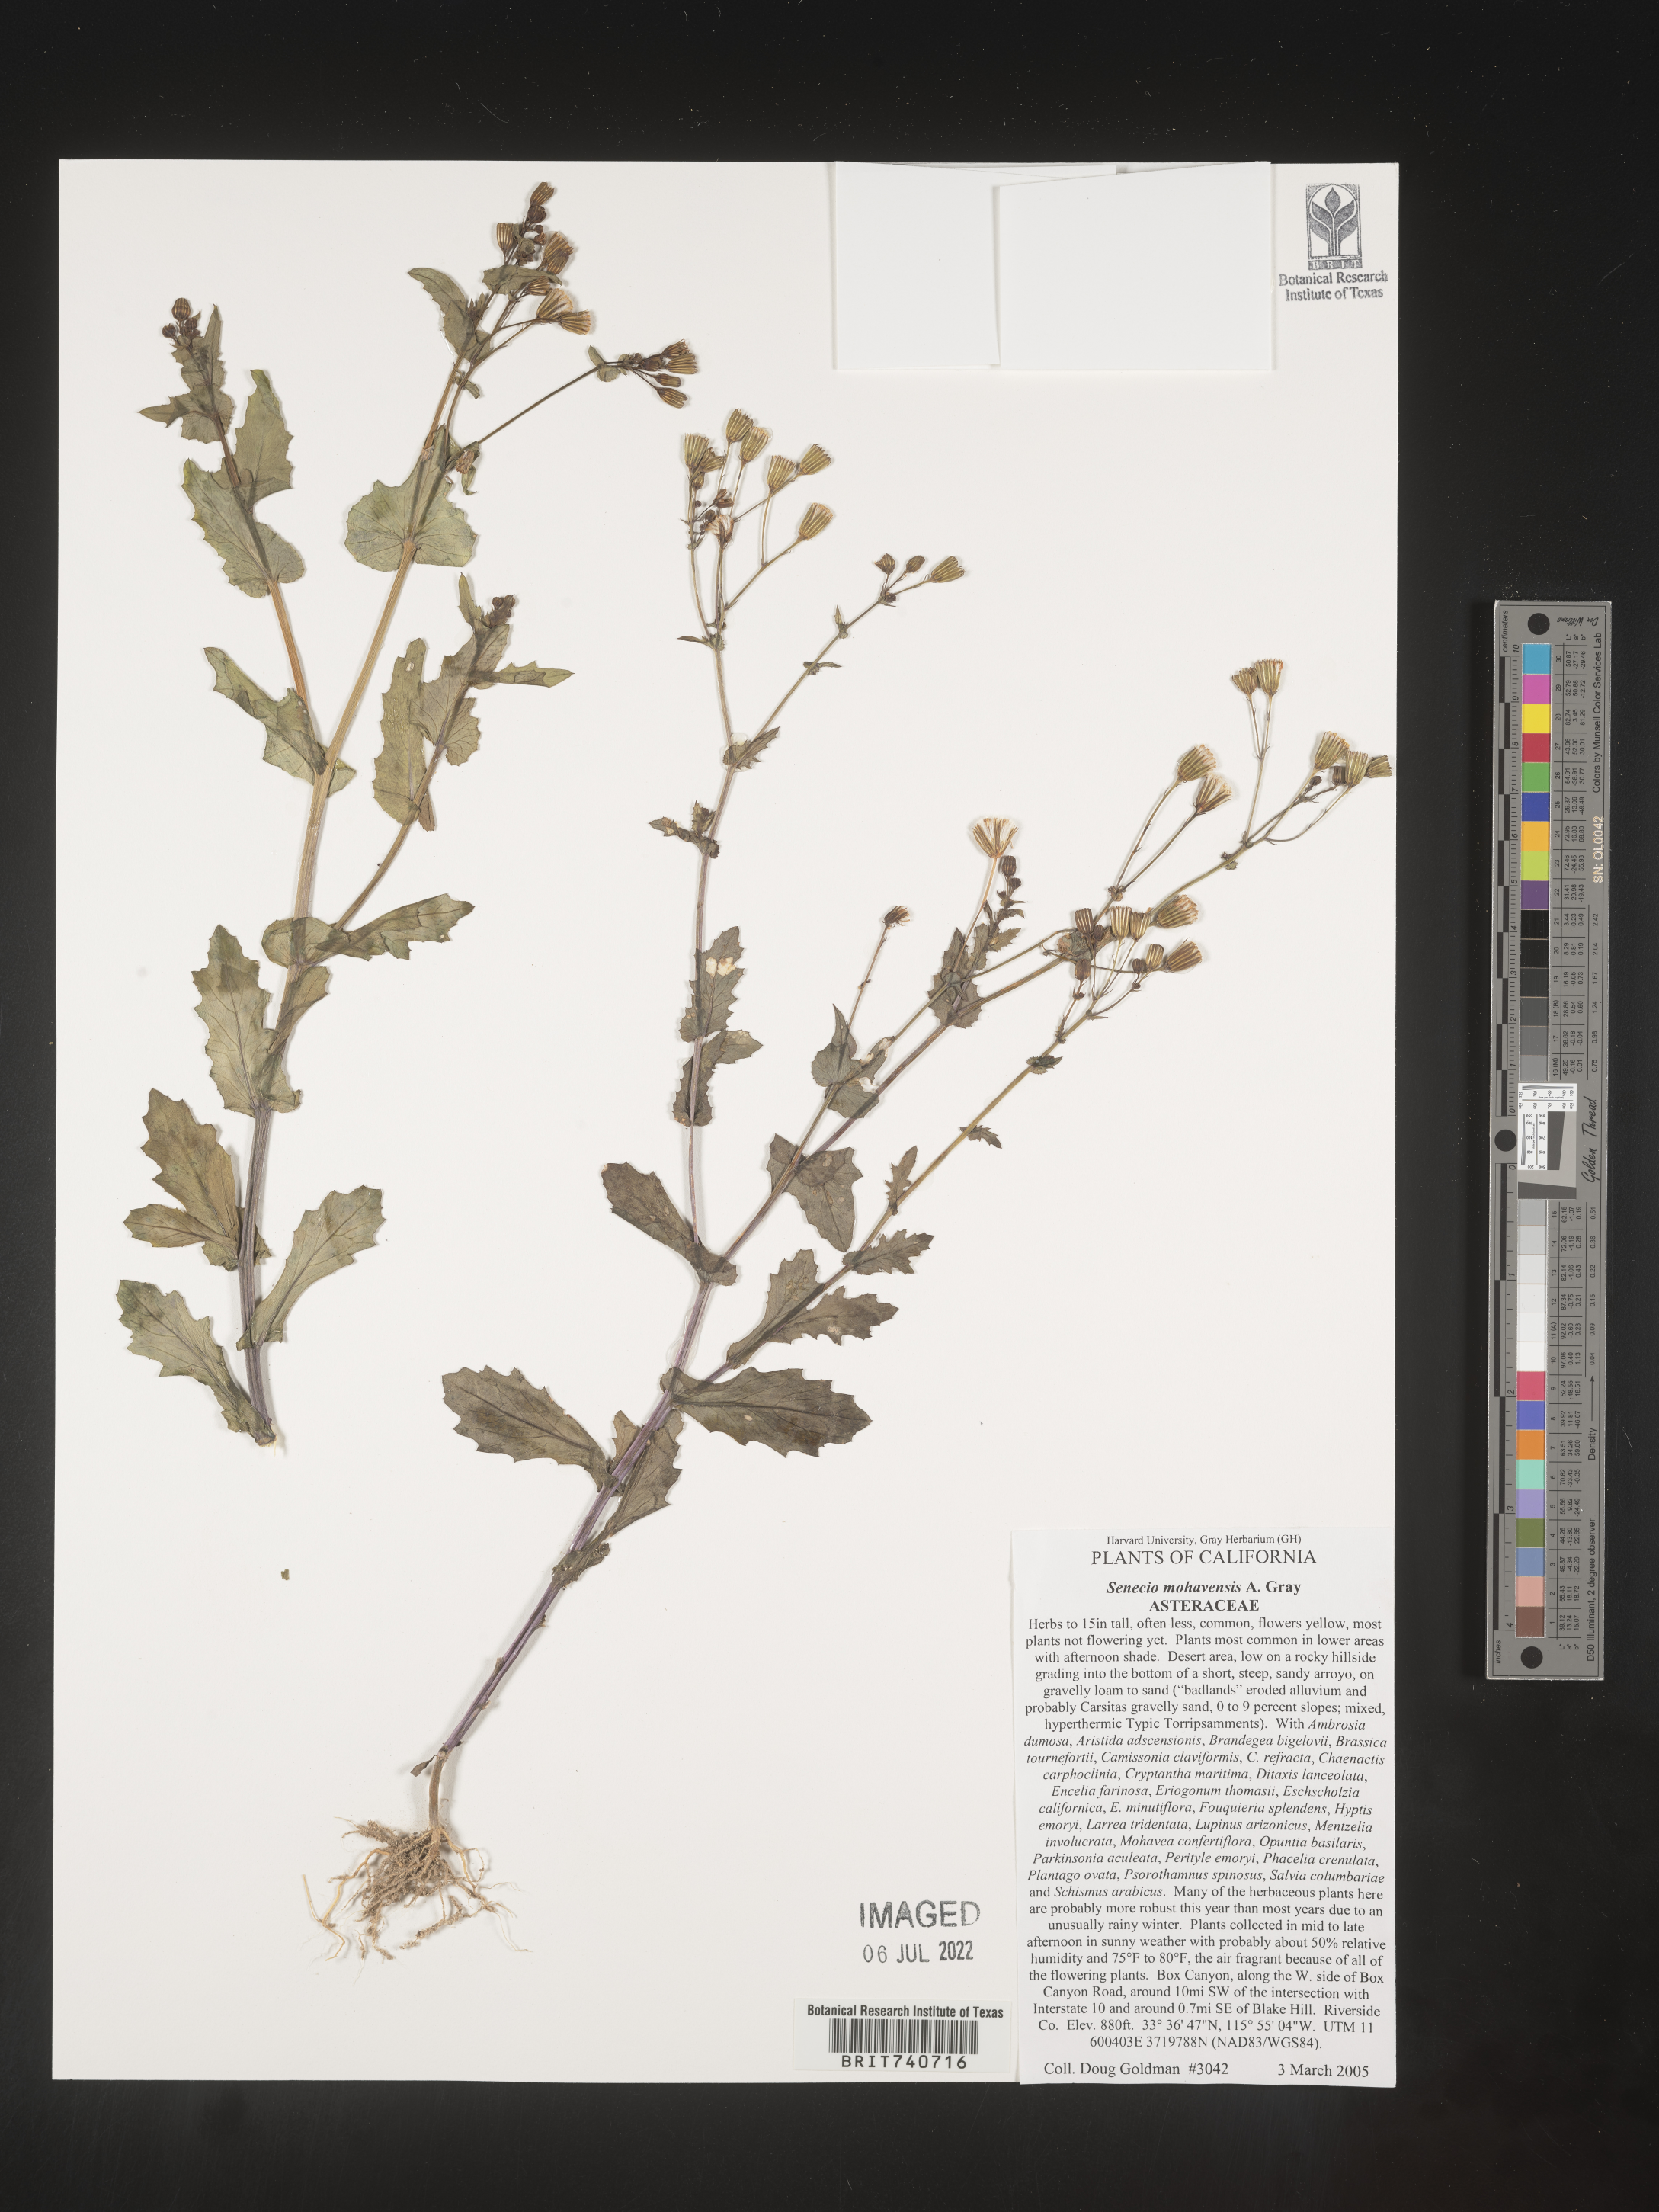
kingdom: Plantae
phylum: Tracheophyta
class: Magnoliopsida
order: Asterales
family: Asteraceae
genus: Senecio
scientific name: Senecio mohavensis
